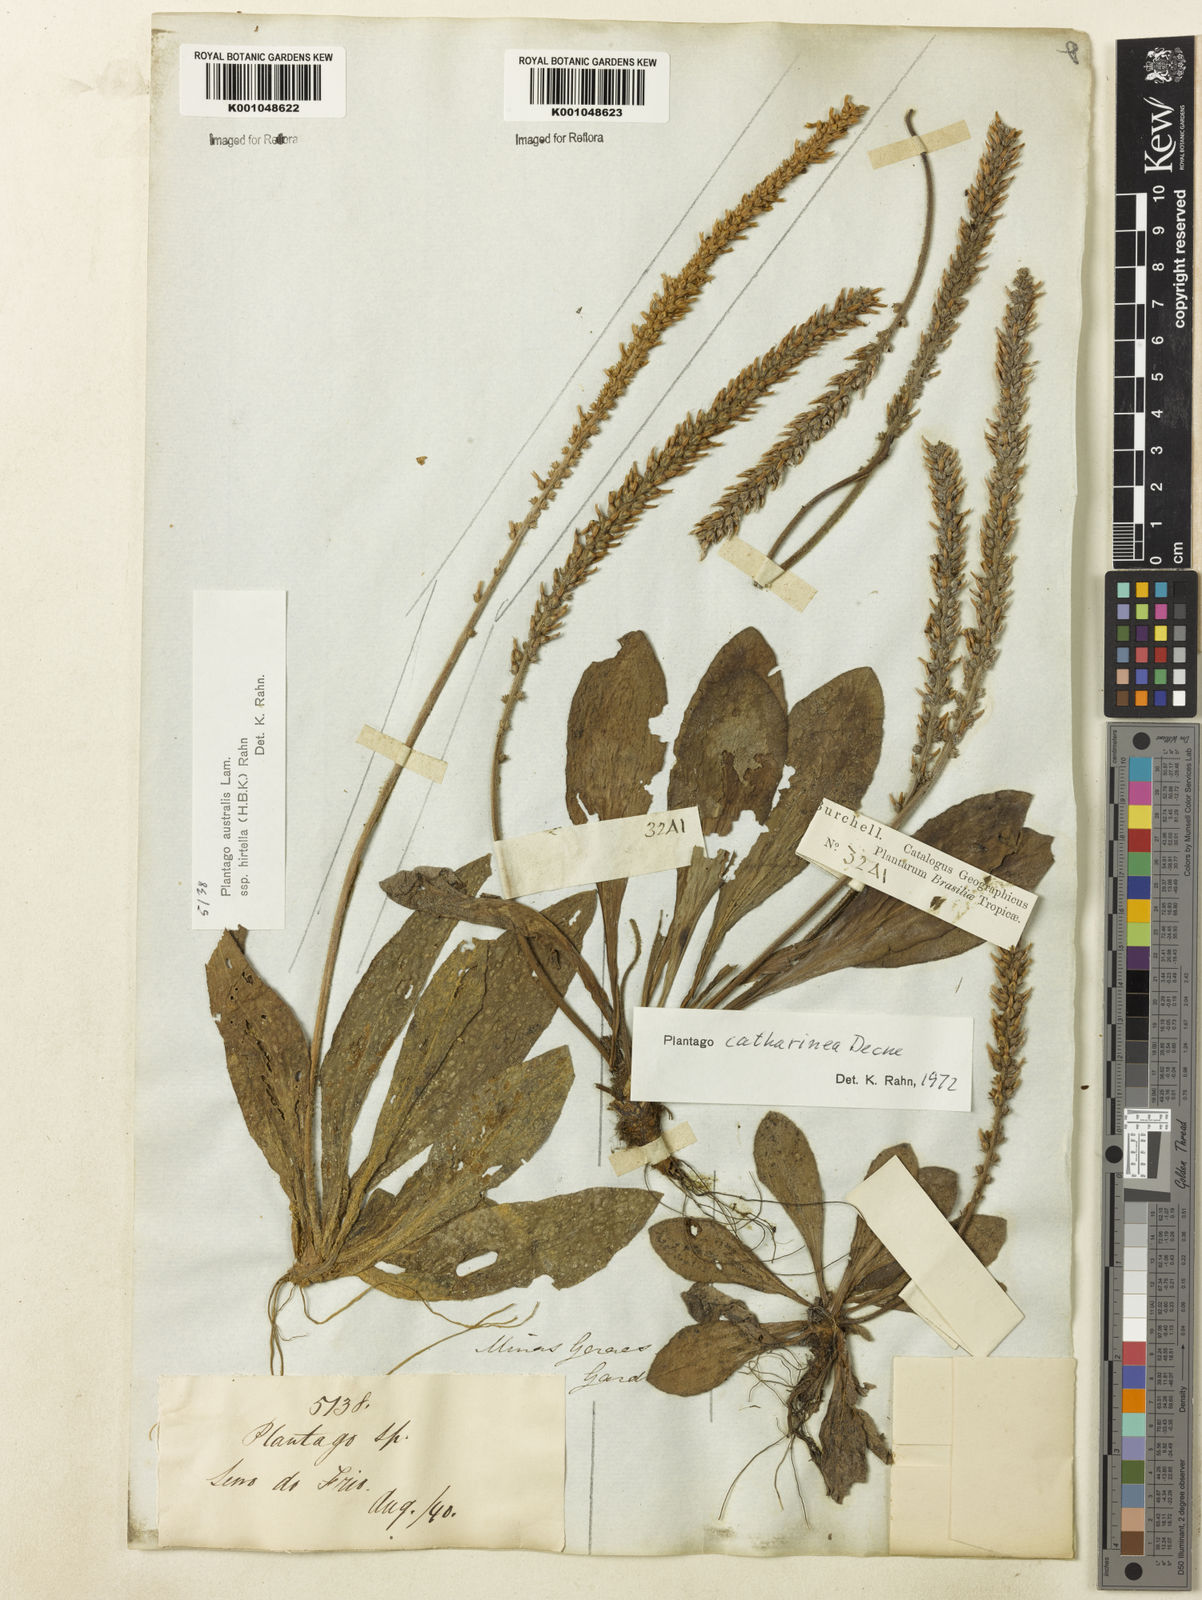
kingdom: Plantae
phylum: Tracheophyta
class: Magnoliopsida
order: Lamiales
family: Plantaginaceae
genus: Plantago
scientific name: Plantago
